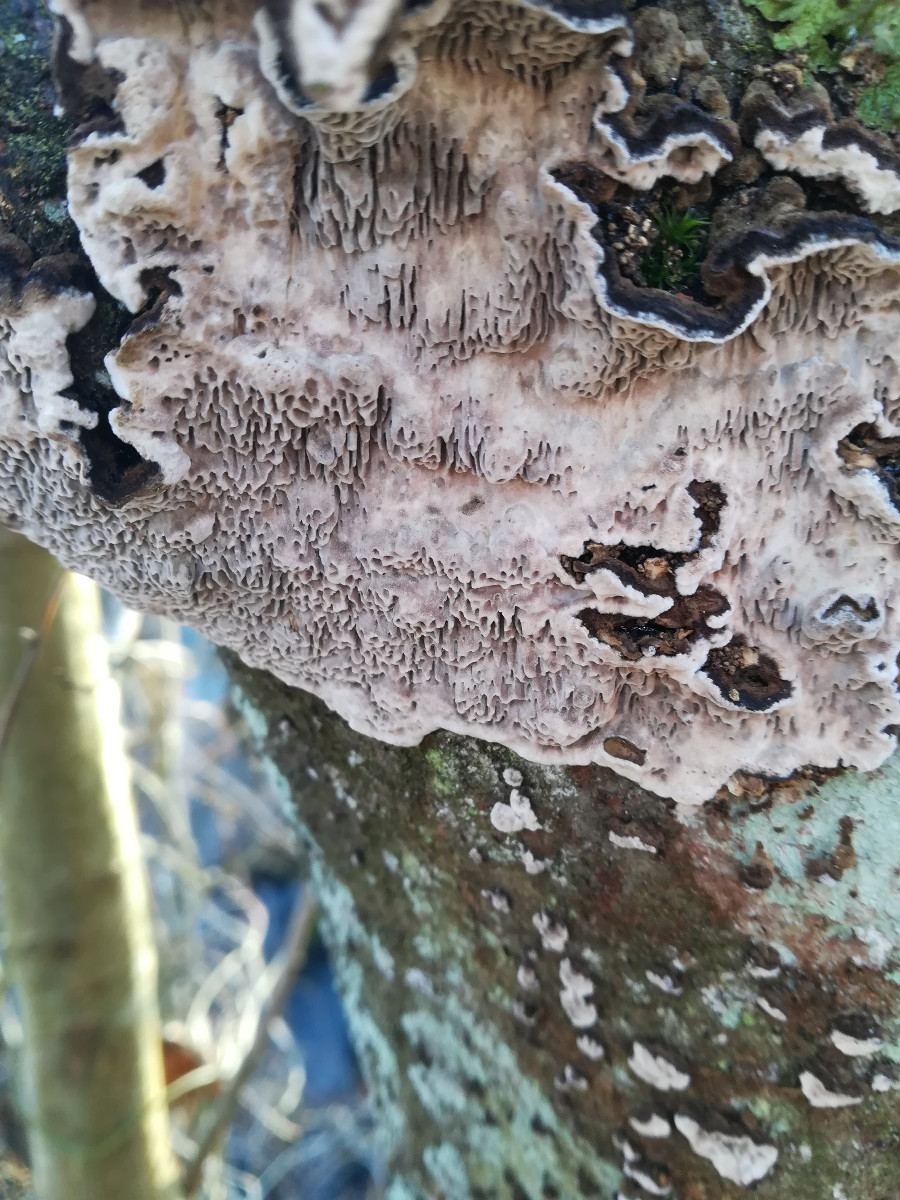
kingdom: Fungi
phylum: Basidiomycota
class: Agaricomycetes
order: Polyporales
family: Polyporaceae
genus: Podofomes
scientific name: Podofomes mollis
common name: blød begporesvamp
